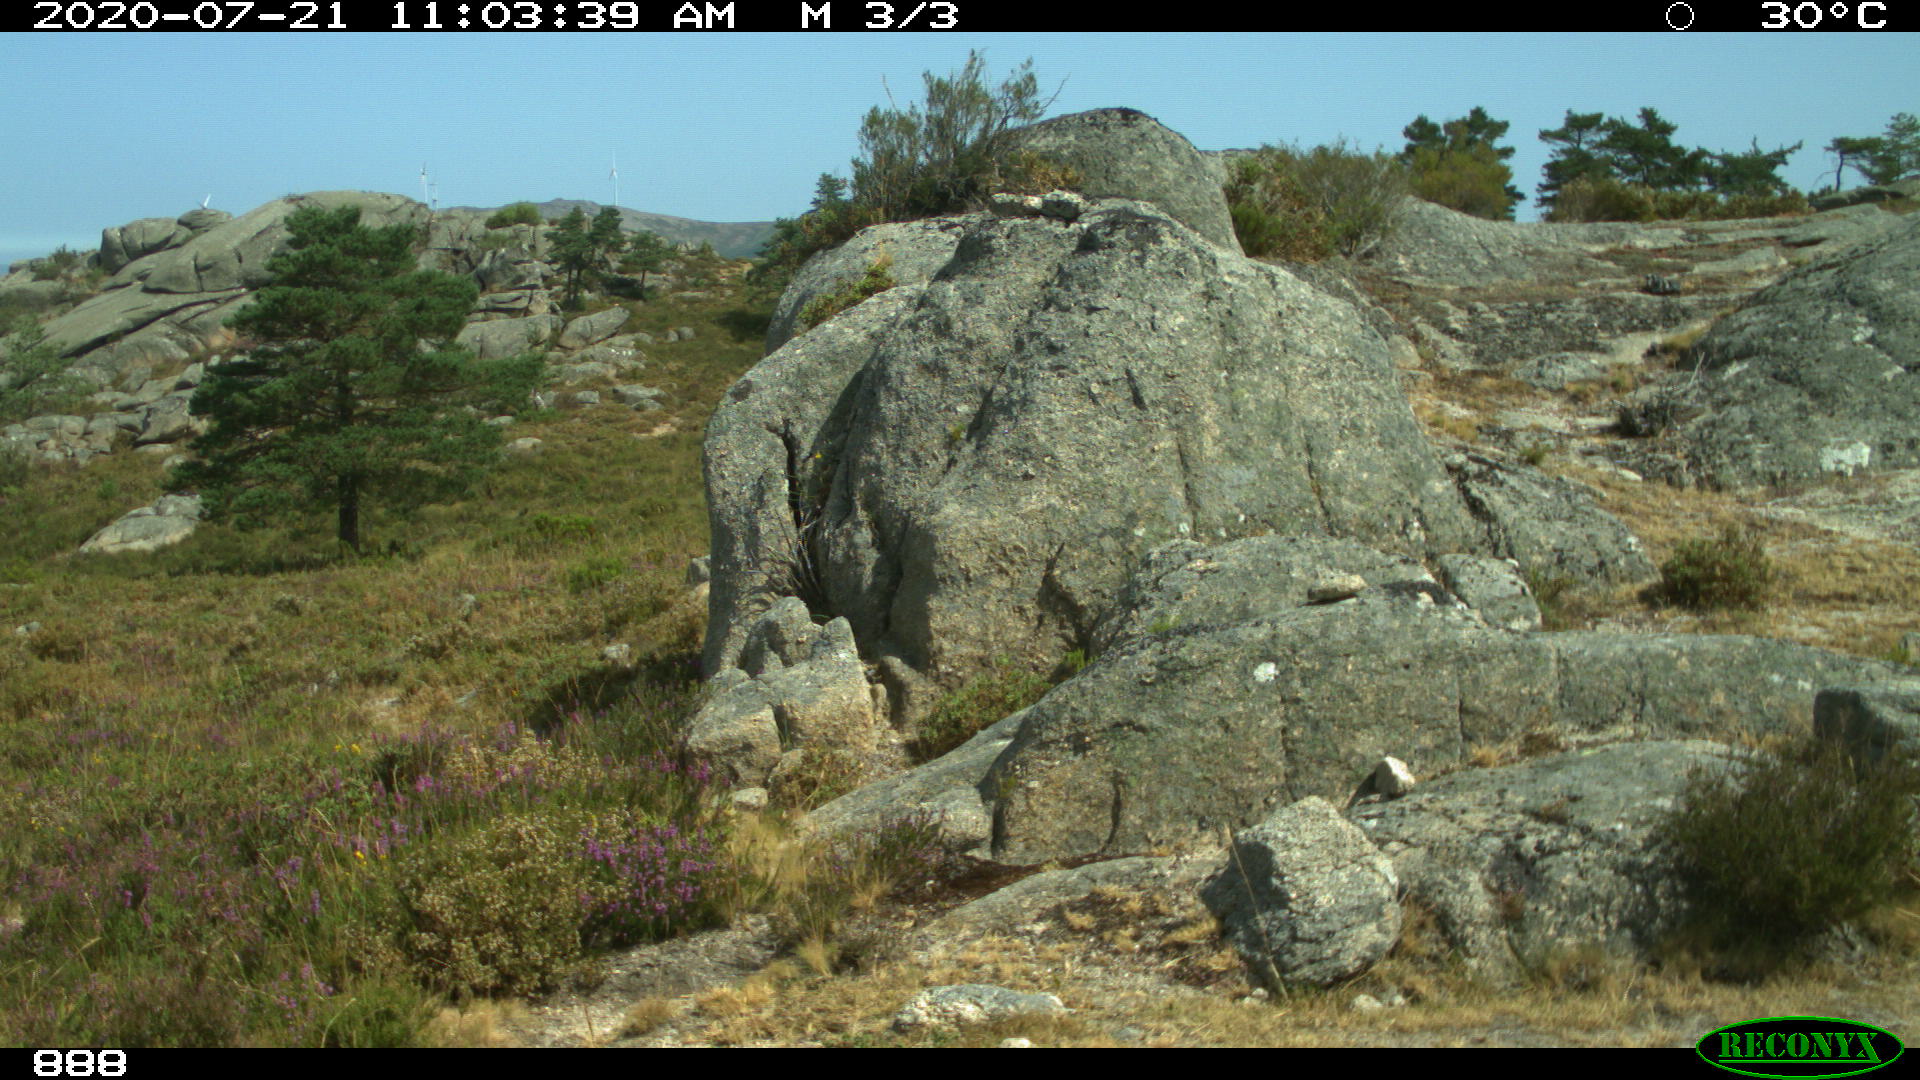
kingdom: Animalia
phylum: Chordata
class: Mammalia
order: Perissodactyla
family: Equidae
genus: Equus
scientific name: Equus caballus
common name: Horse
